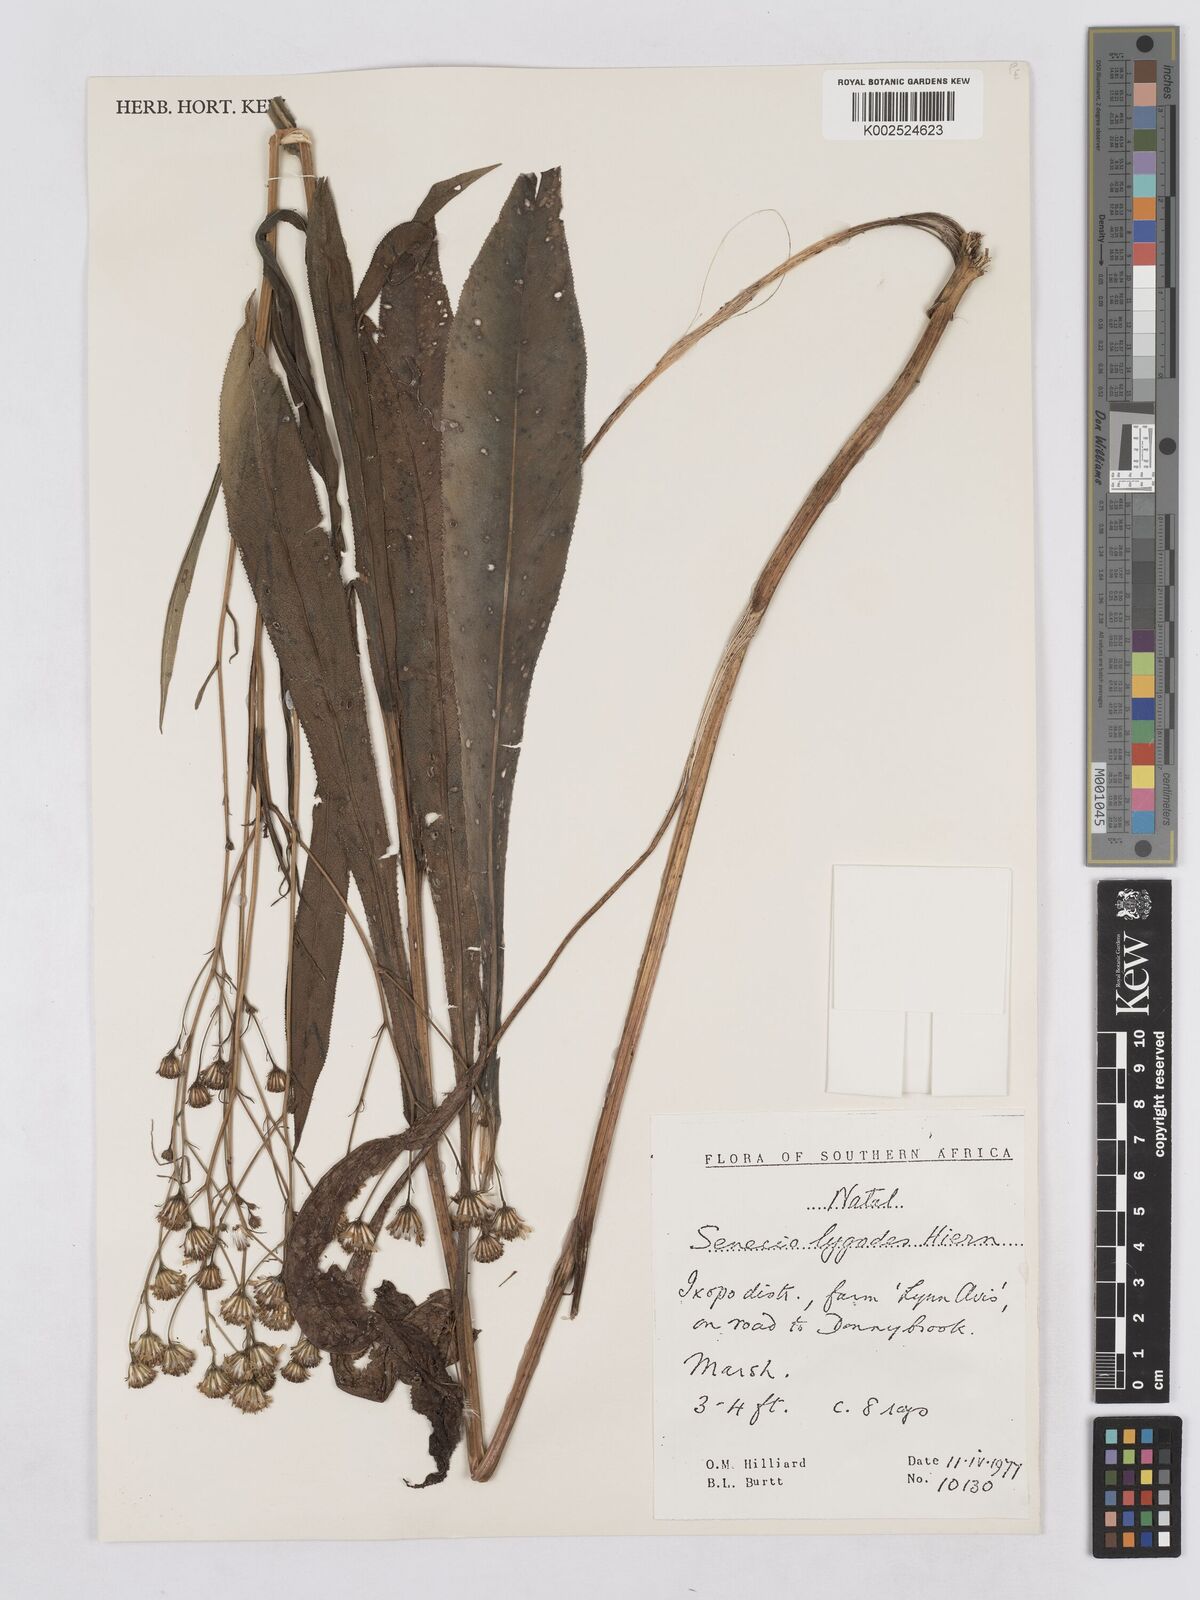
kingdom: Plantae
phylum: Tracheophyta
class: Magnoliopsida
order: Asterales
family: Asteraceae
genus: Senecio
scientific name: Senecio inornatus
